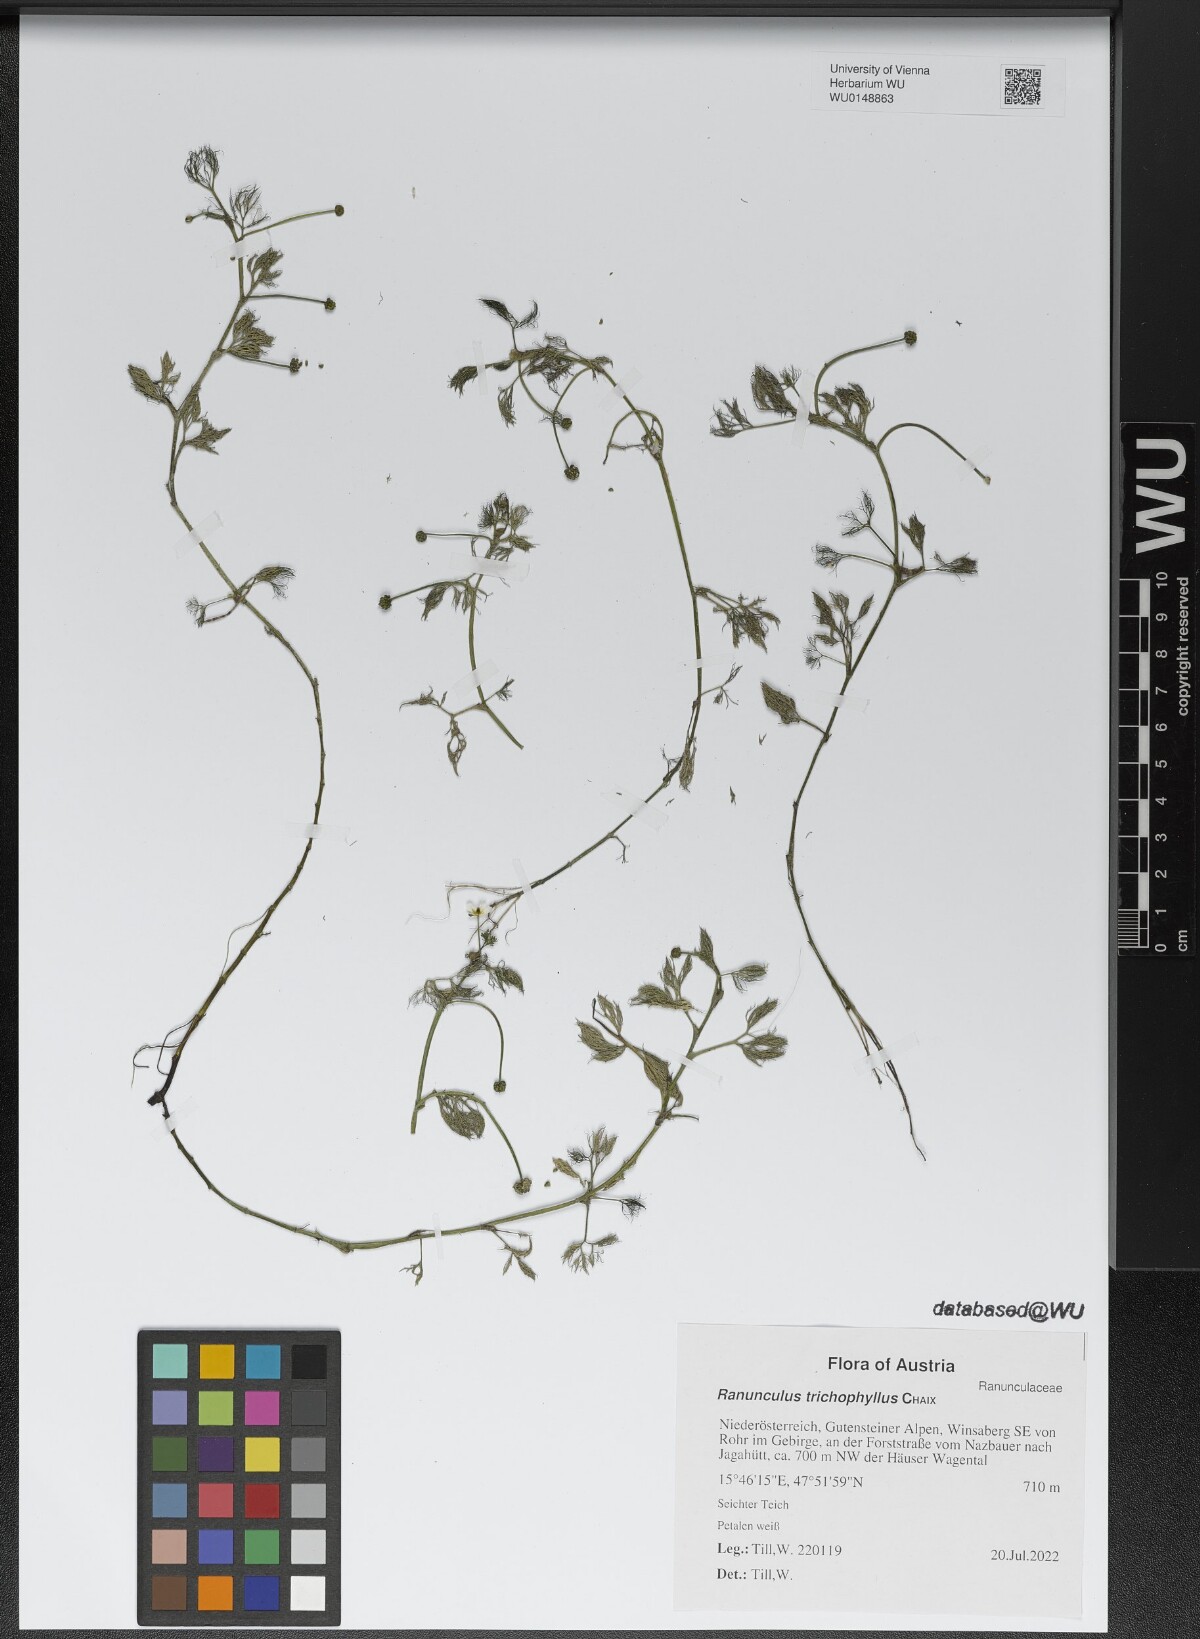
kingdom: Plantae
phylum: Tracheophyta
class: Magnoliopsida
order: Ranunculales
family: Ranunculaceae
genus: Ranunculus
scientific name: Ranunculus trichophyllus
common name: Thread-leaved water-crowfoot
